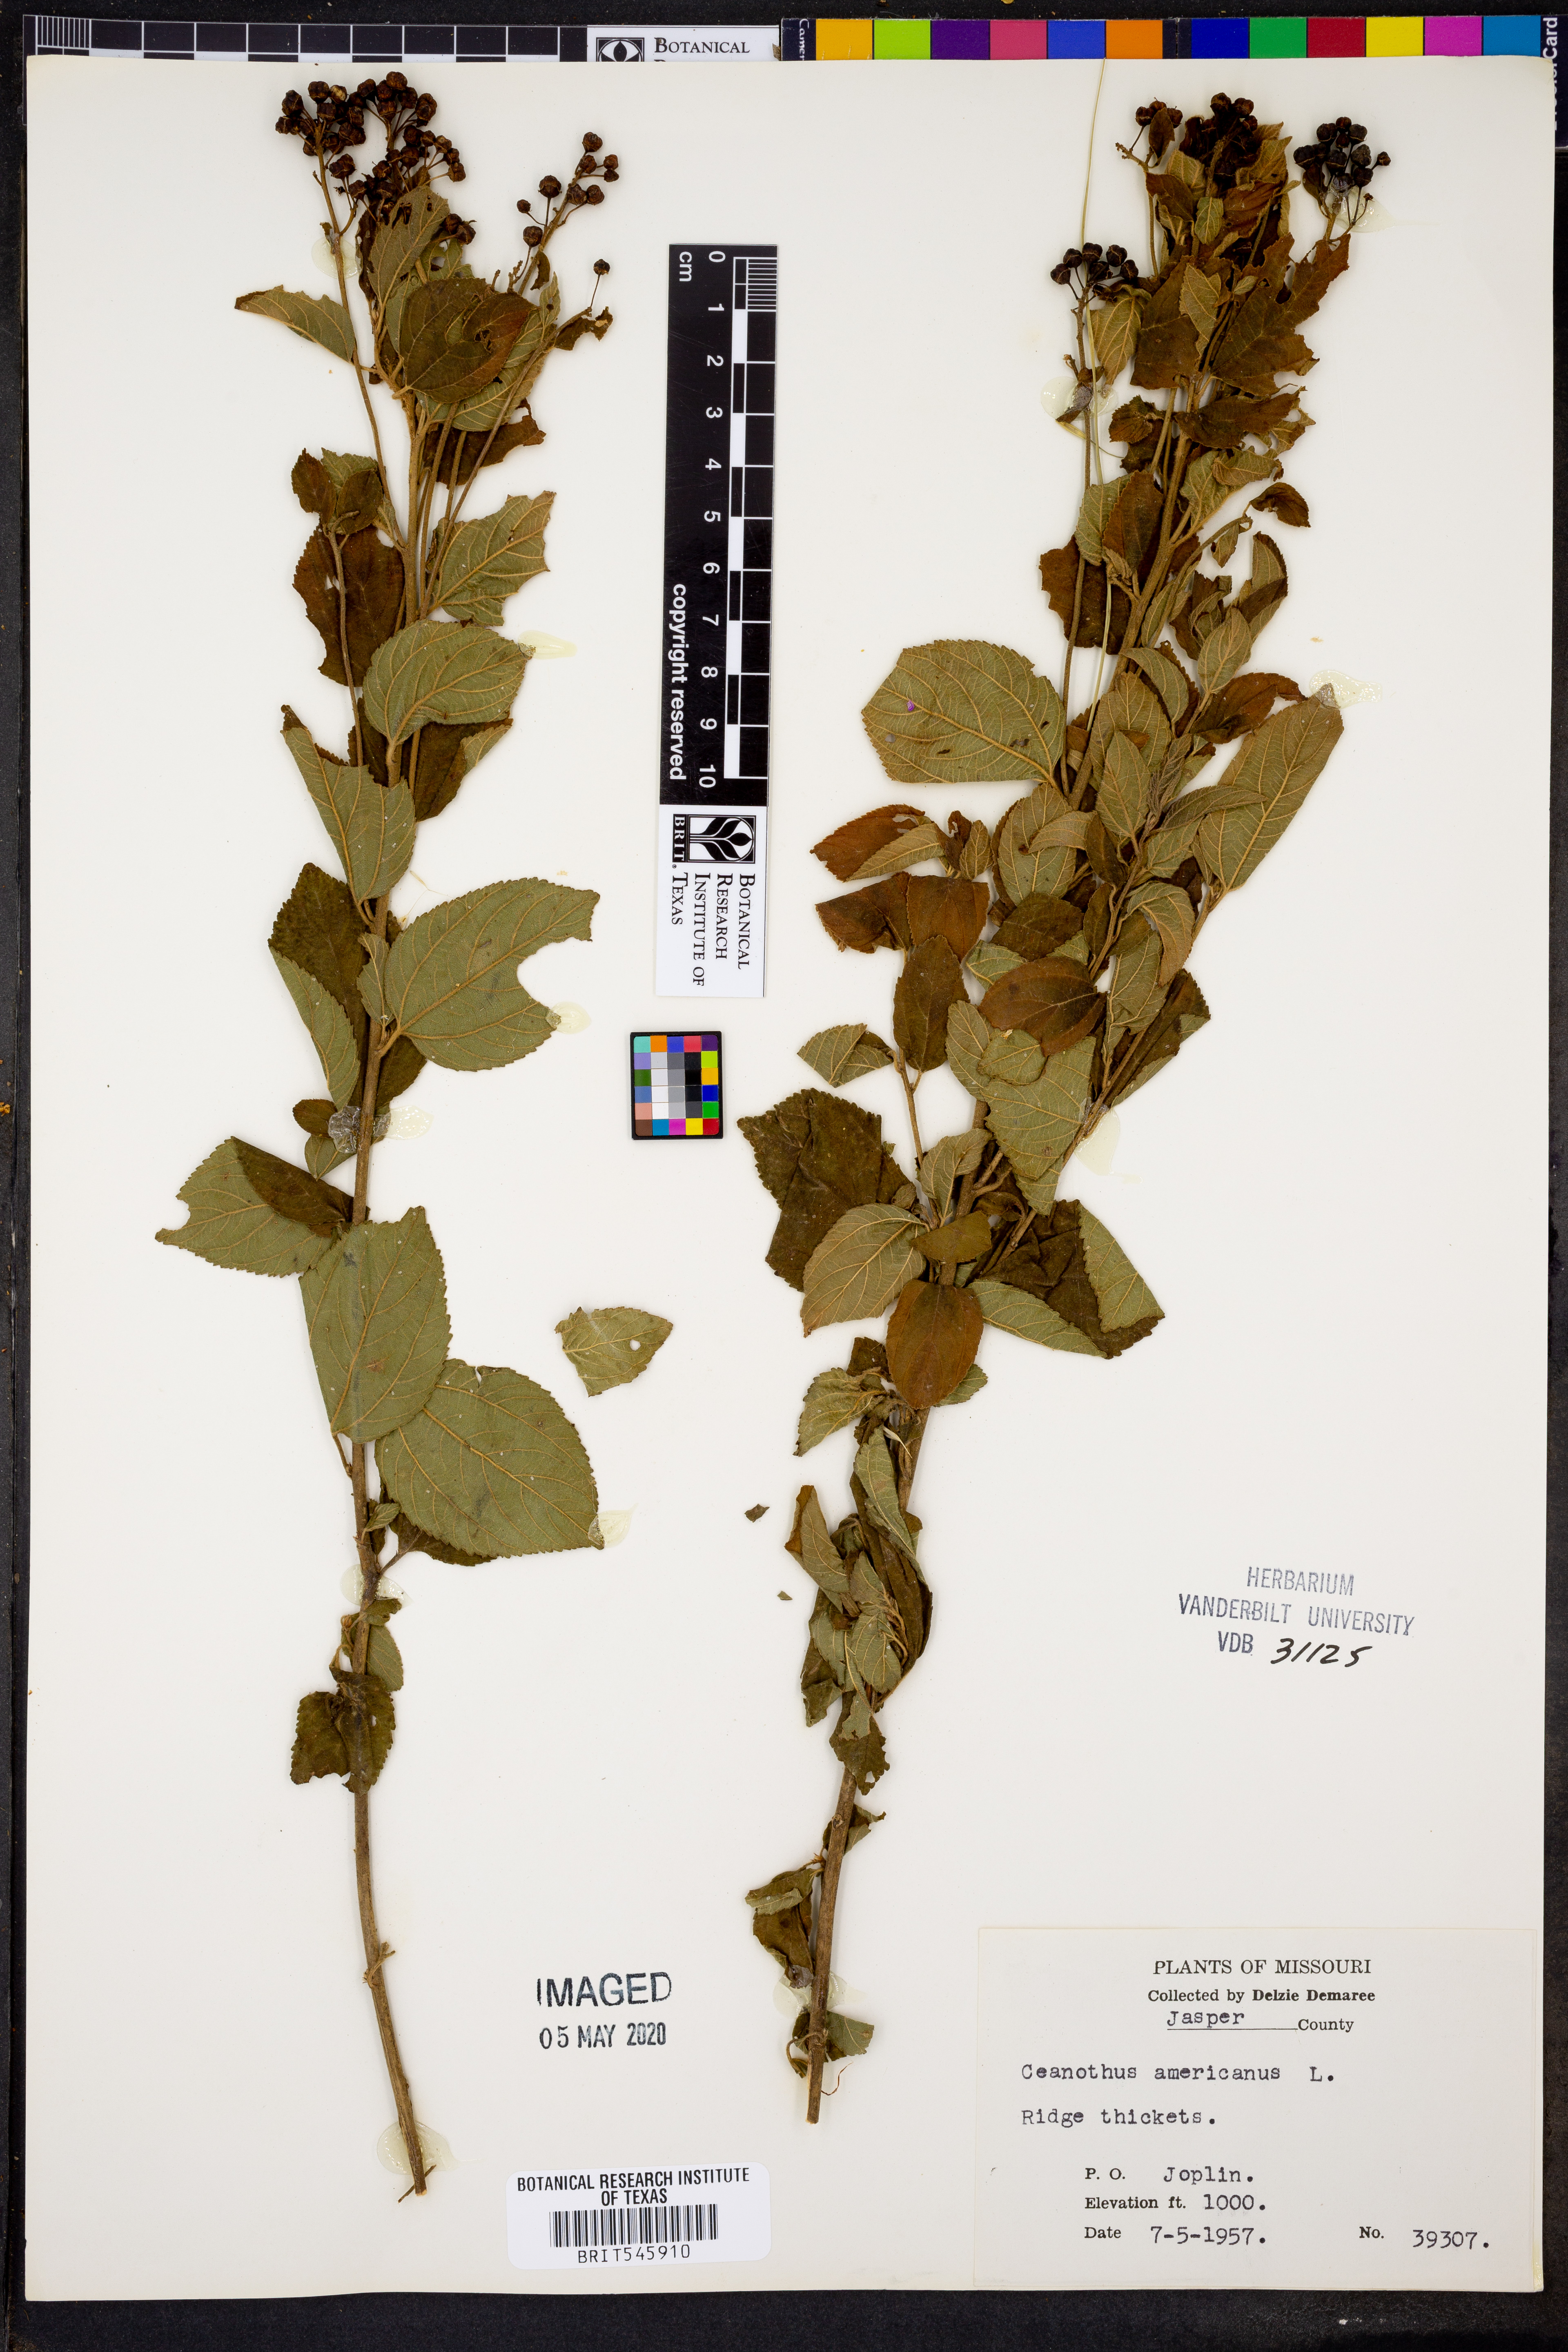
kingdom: Plantae
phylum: Tracheophyta
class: Magnoliopsida
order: Rosales
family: Rhamnaceae
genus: Ceanothus
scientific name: Ceanothus americanus
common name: Redroot
